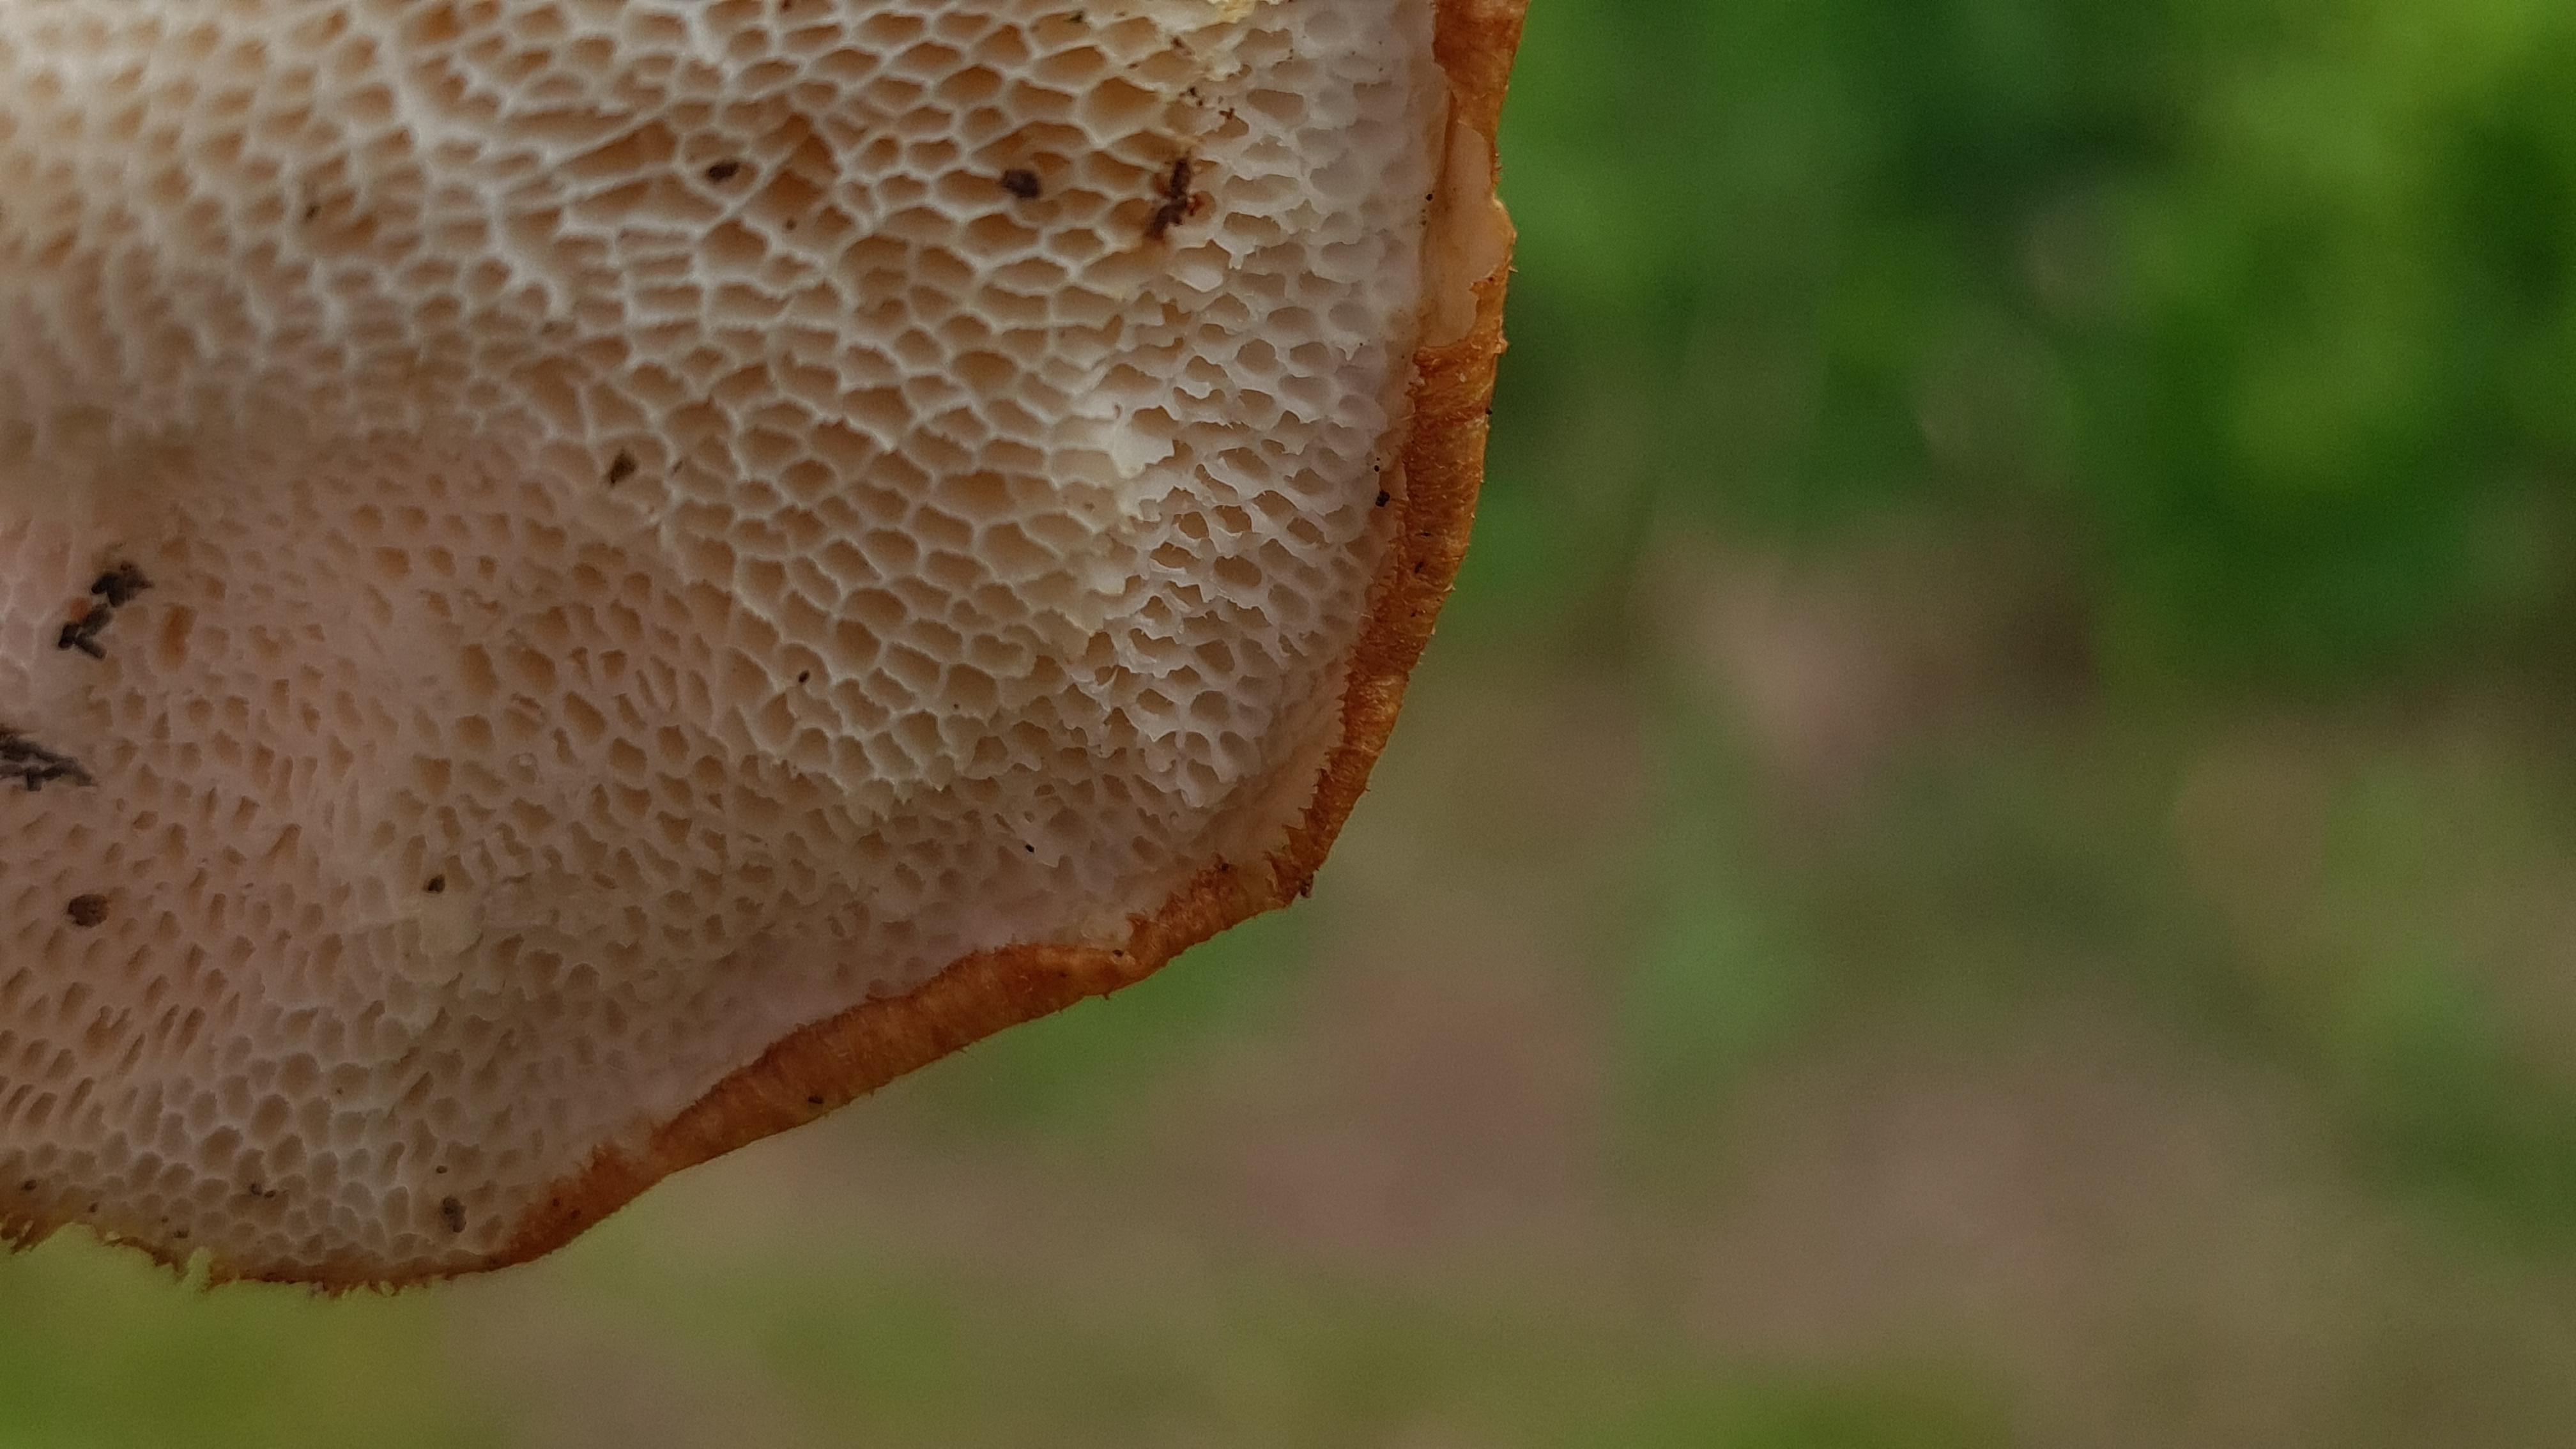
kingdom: Fungi
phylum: Basidiomycota
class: Agaricomycetes
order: Polyporales
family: Polyporaceae
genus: Polyporus
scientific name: Polyporus tuberaster
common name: knoldet stilkporesvamp
